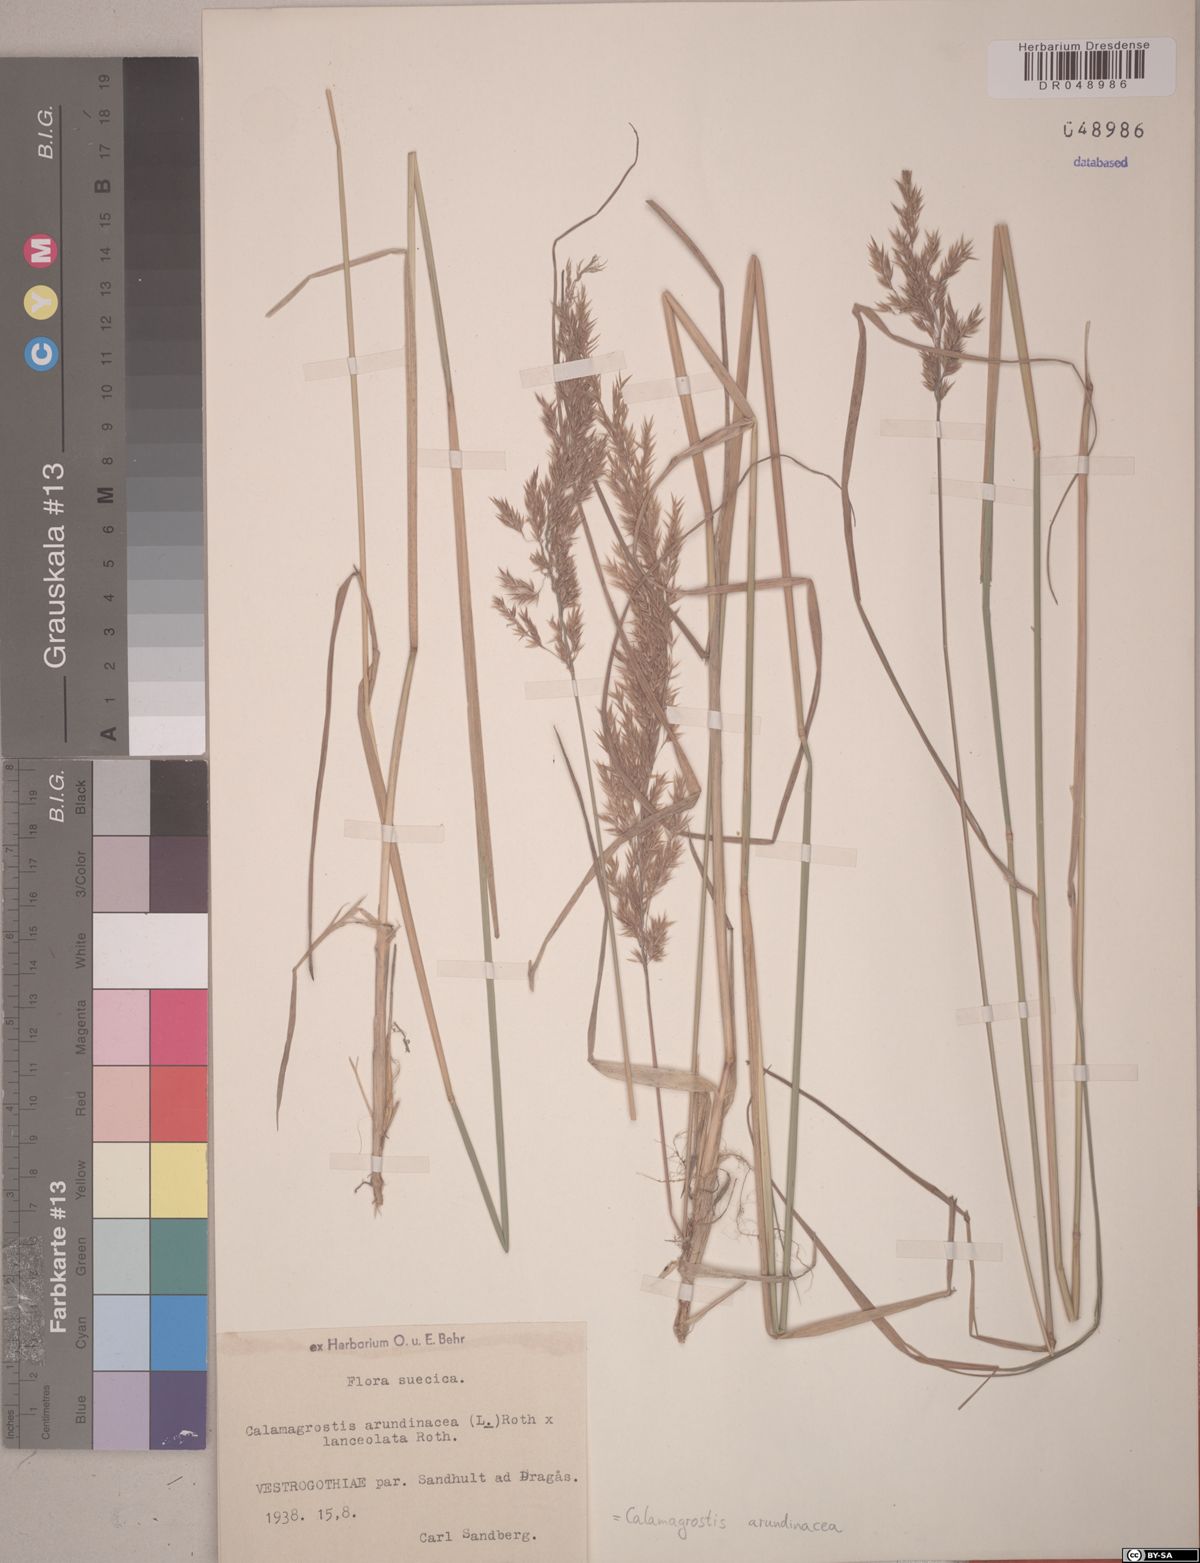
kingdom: Plantae
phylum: Tracheophyta
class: Liliopsida
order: Poales
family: Poaceae
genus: Calamagrostis
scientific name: Calamagrostis arundinacea
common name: Metskastik
